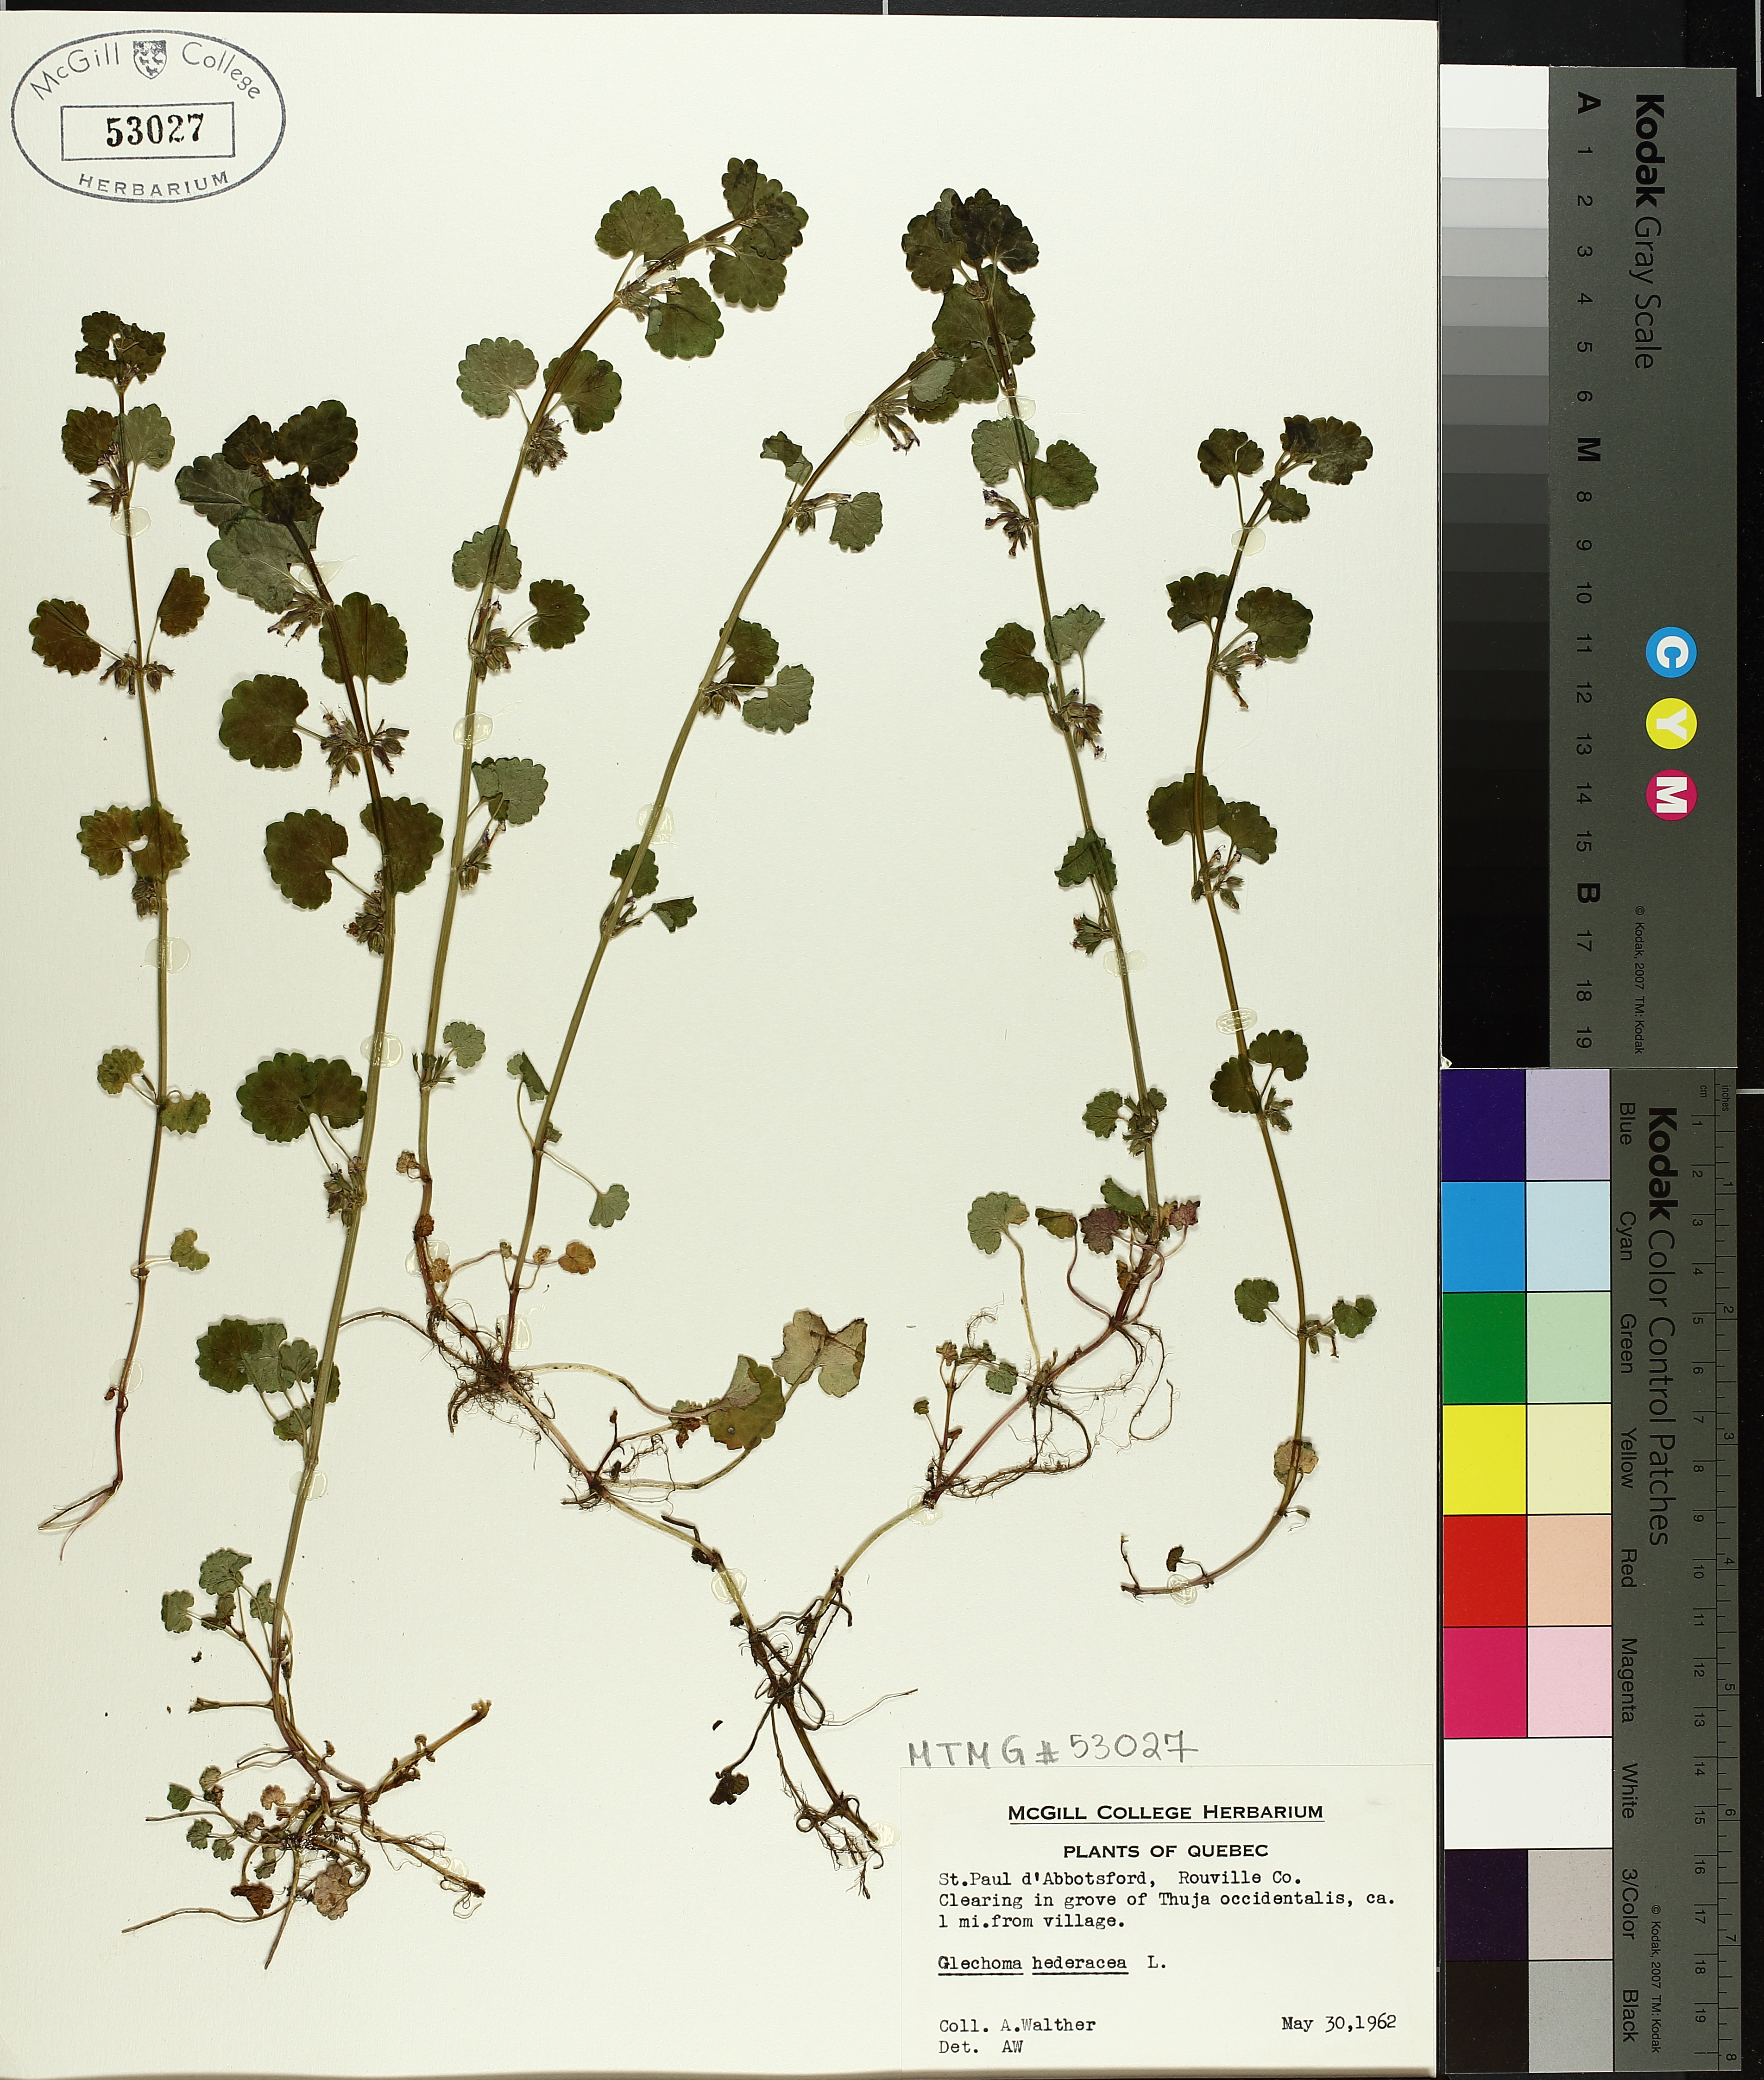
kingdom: Plantae
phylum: Tracheophyta
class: Magnoliopsida
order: Lamiales
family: Lamiaceae
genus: Glechoma
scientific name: Glechoma hederacea
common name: Ground ivy
